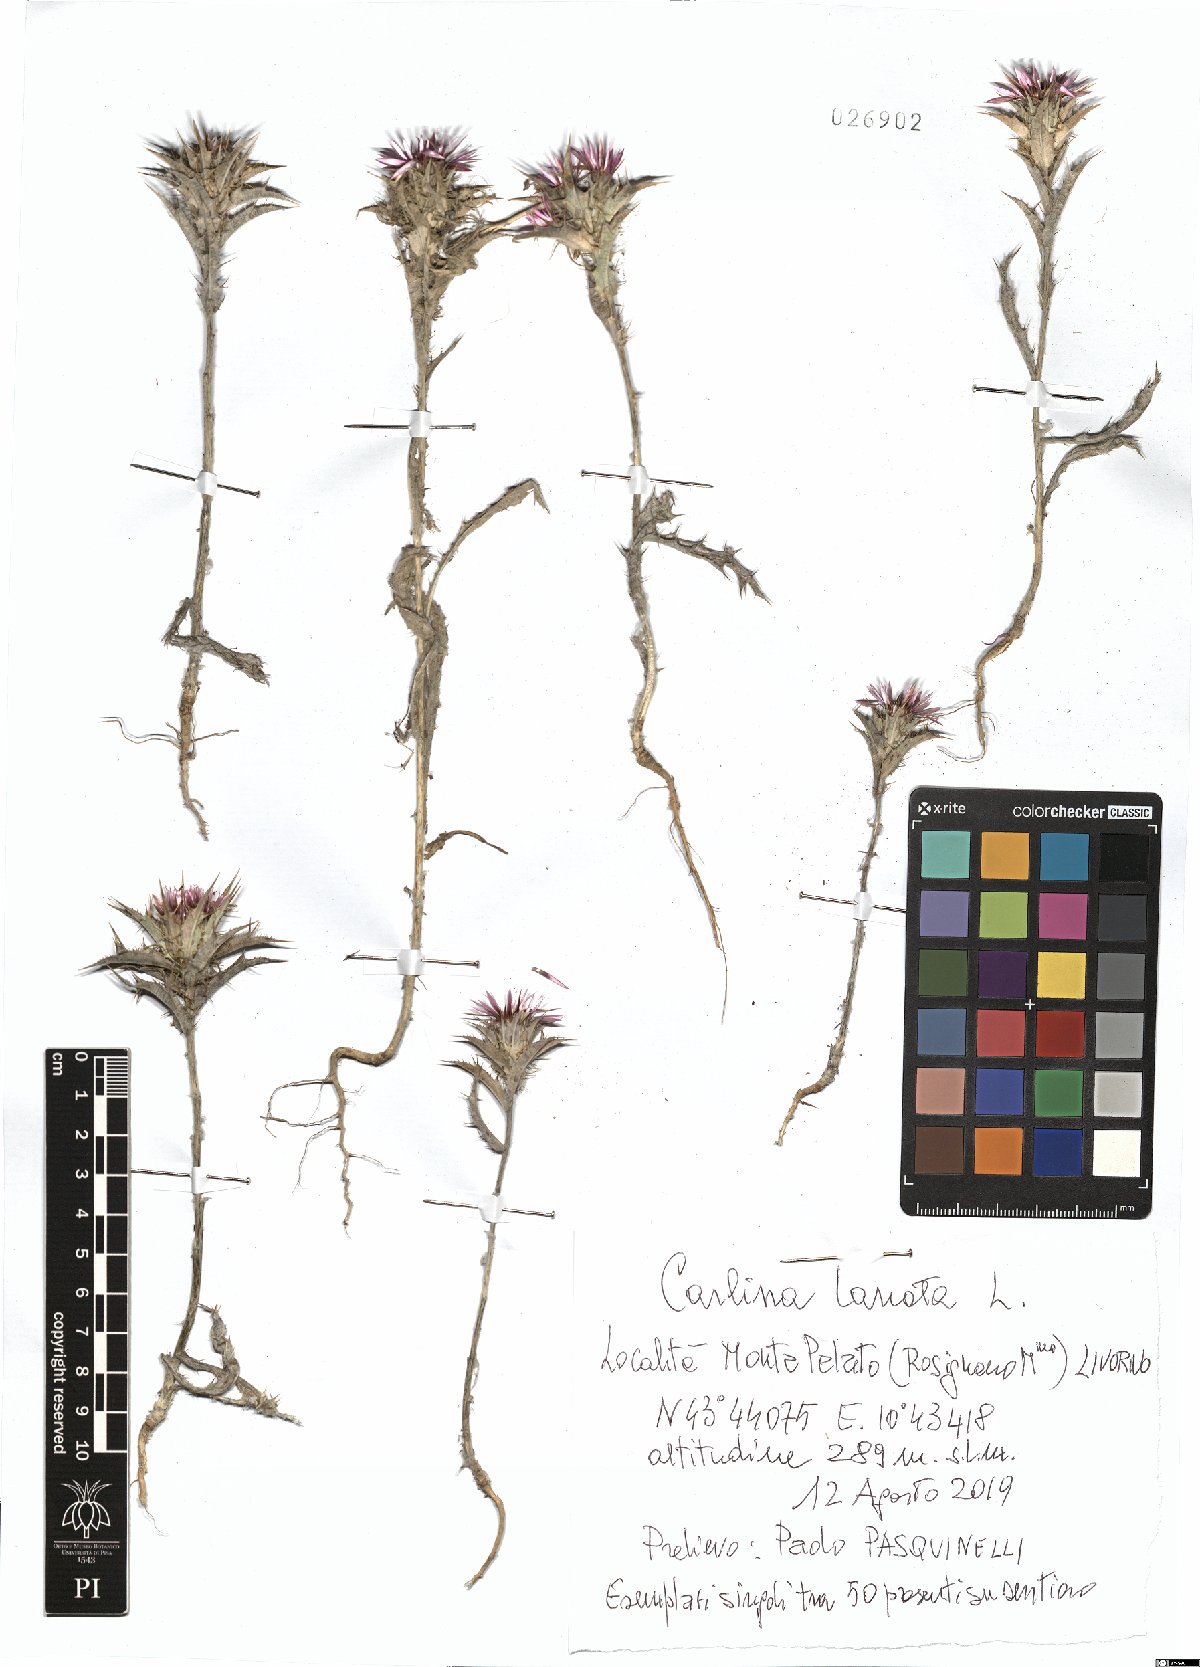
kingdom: Plantae
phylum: Tracheophyta
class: Magnoliopsida
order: Asterales
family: Asteraceae
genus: Carlina
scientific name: Carlina lanata
